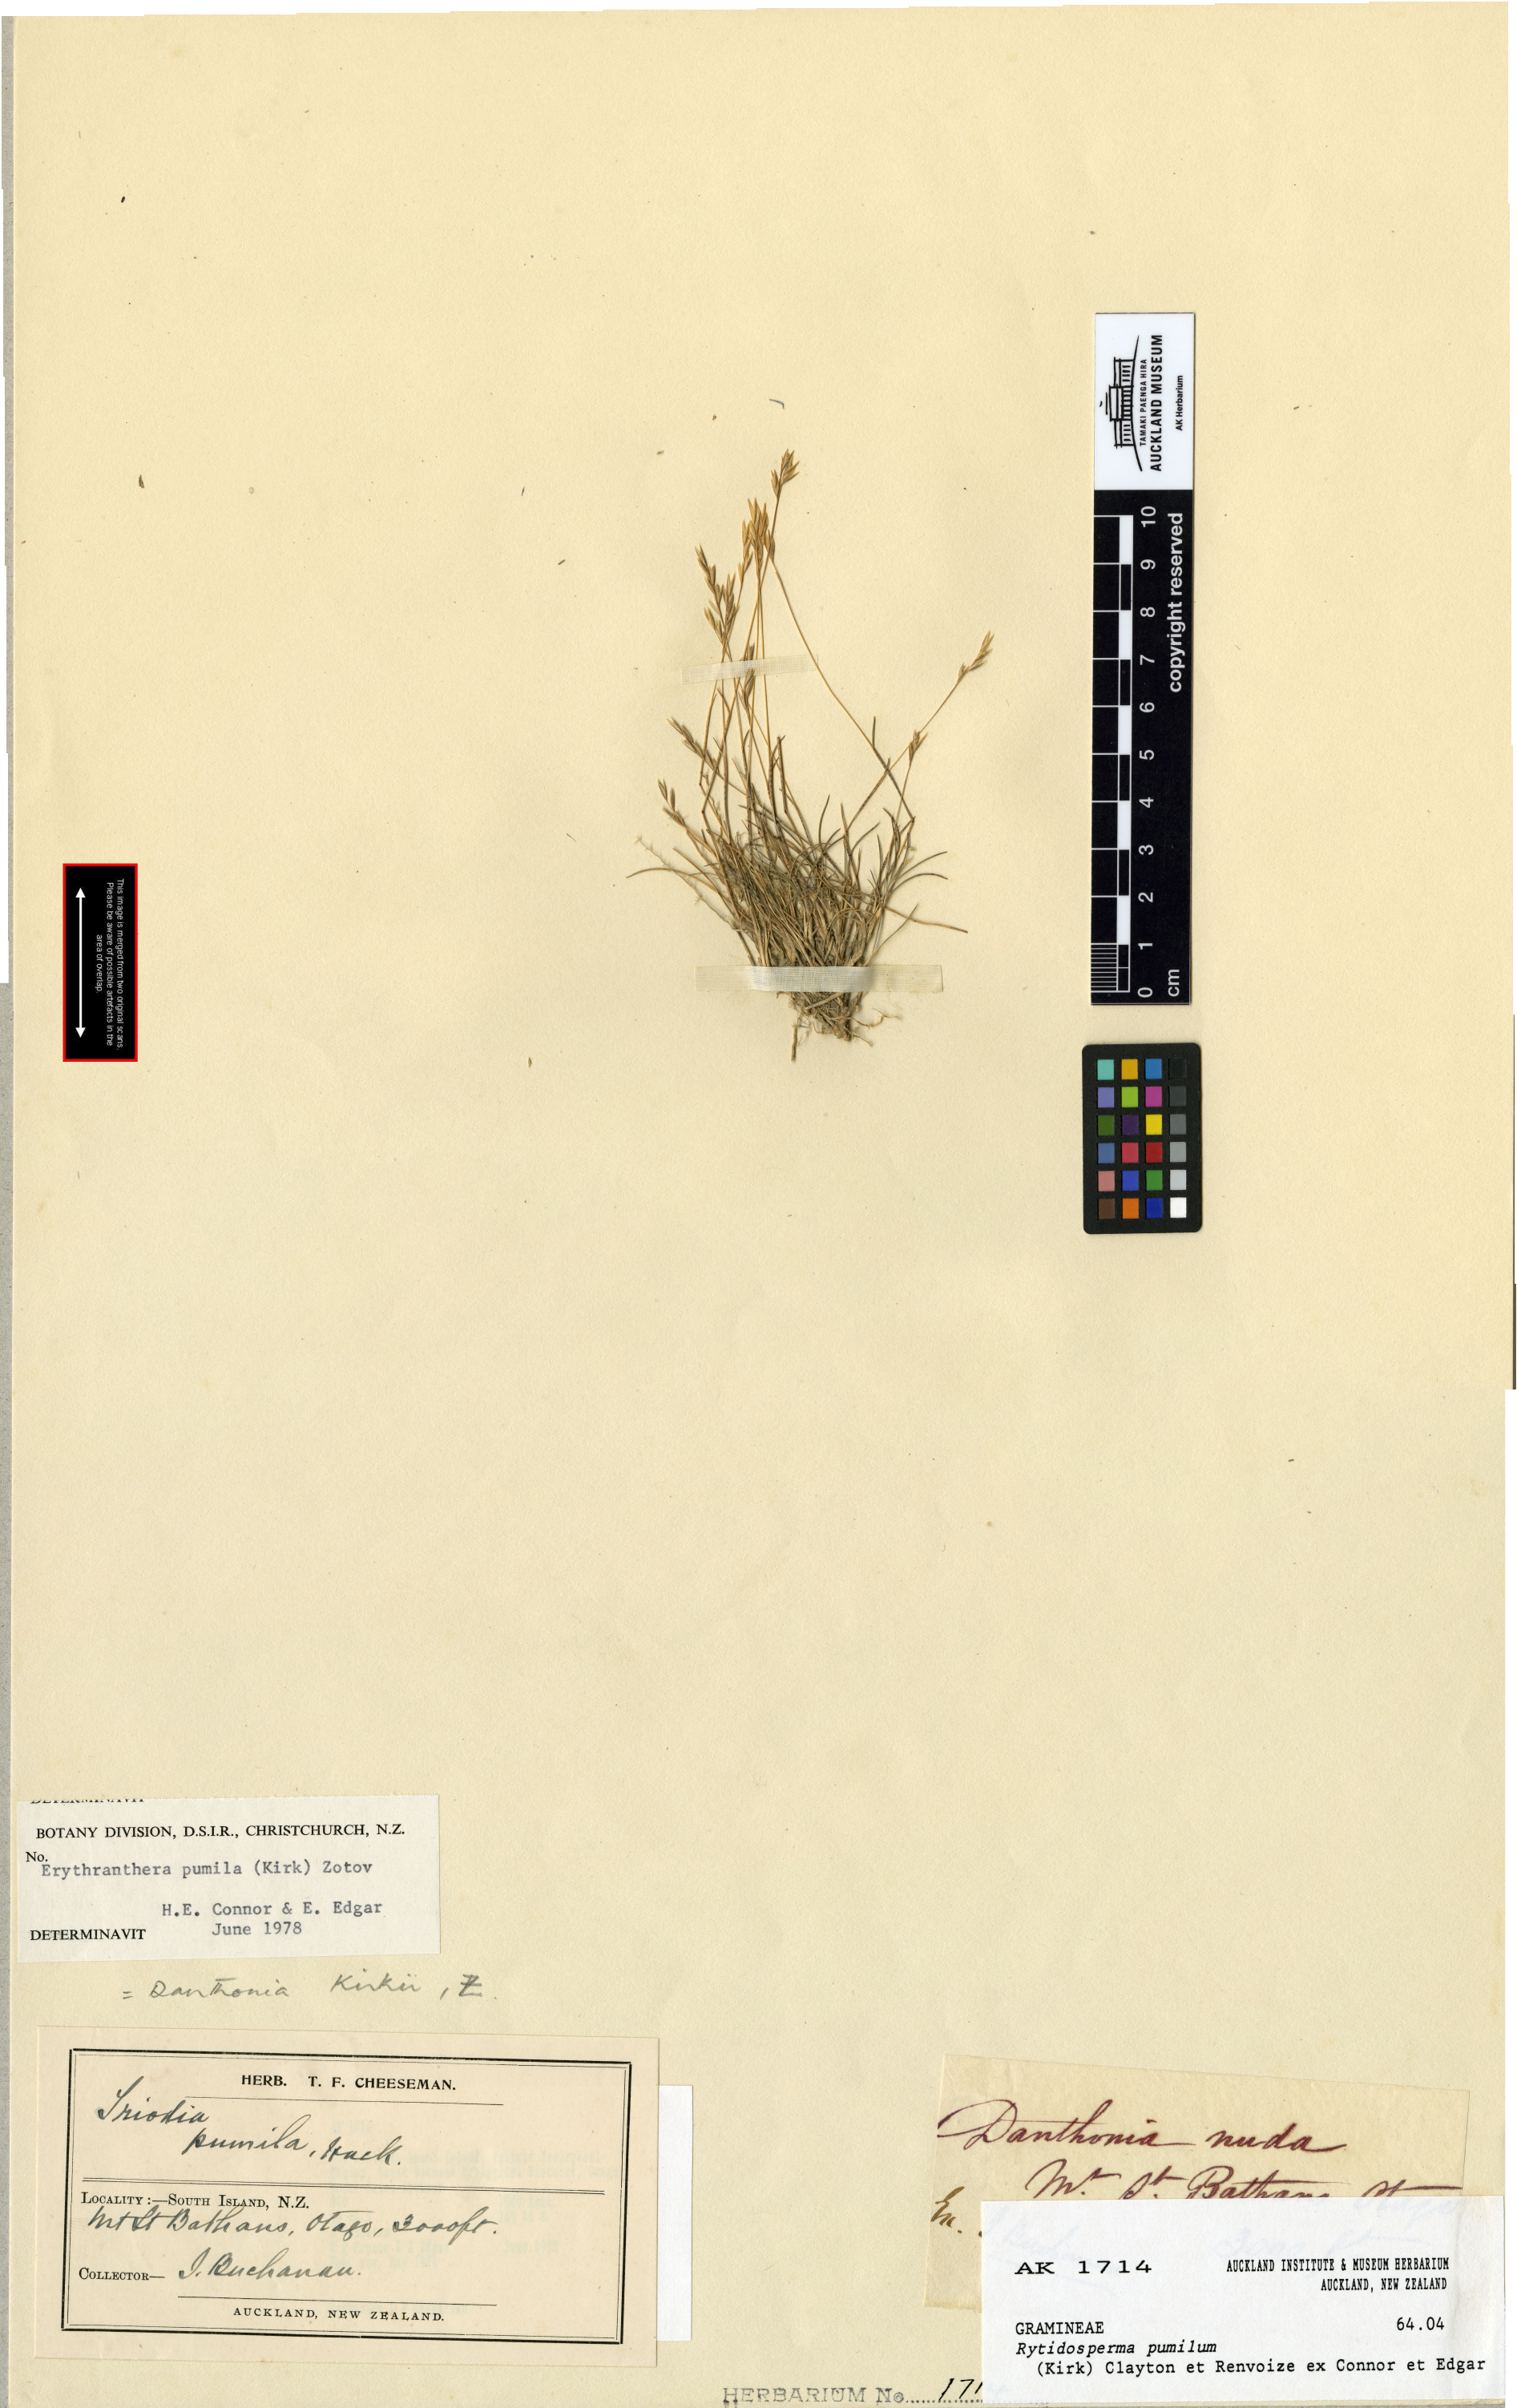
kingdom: Plantae
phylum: Tracheophyta
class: Liliopsida
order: Poales
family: Poaceae
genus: Rytidosperma
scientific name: Rytidosperma pumilum
